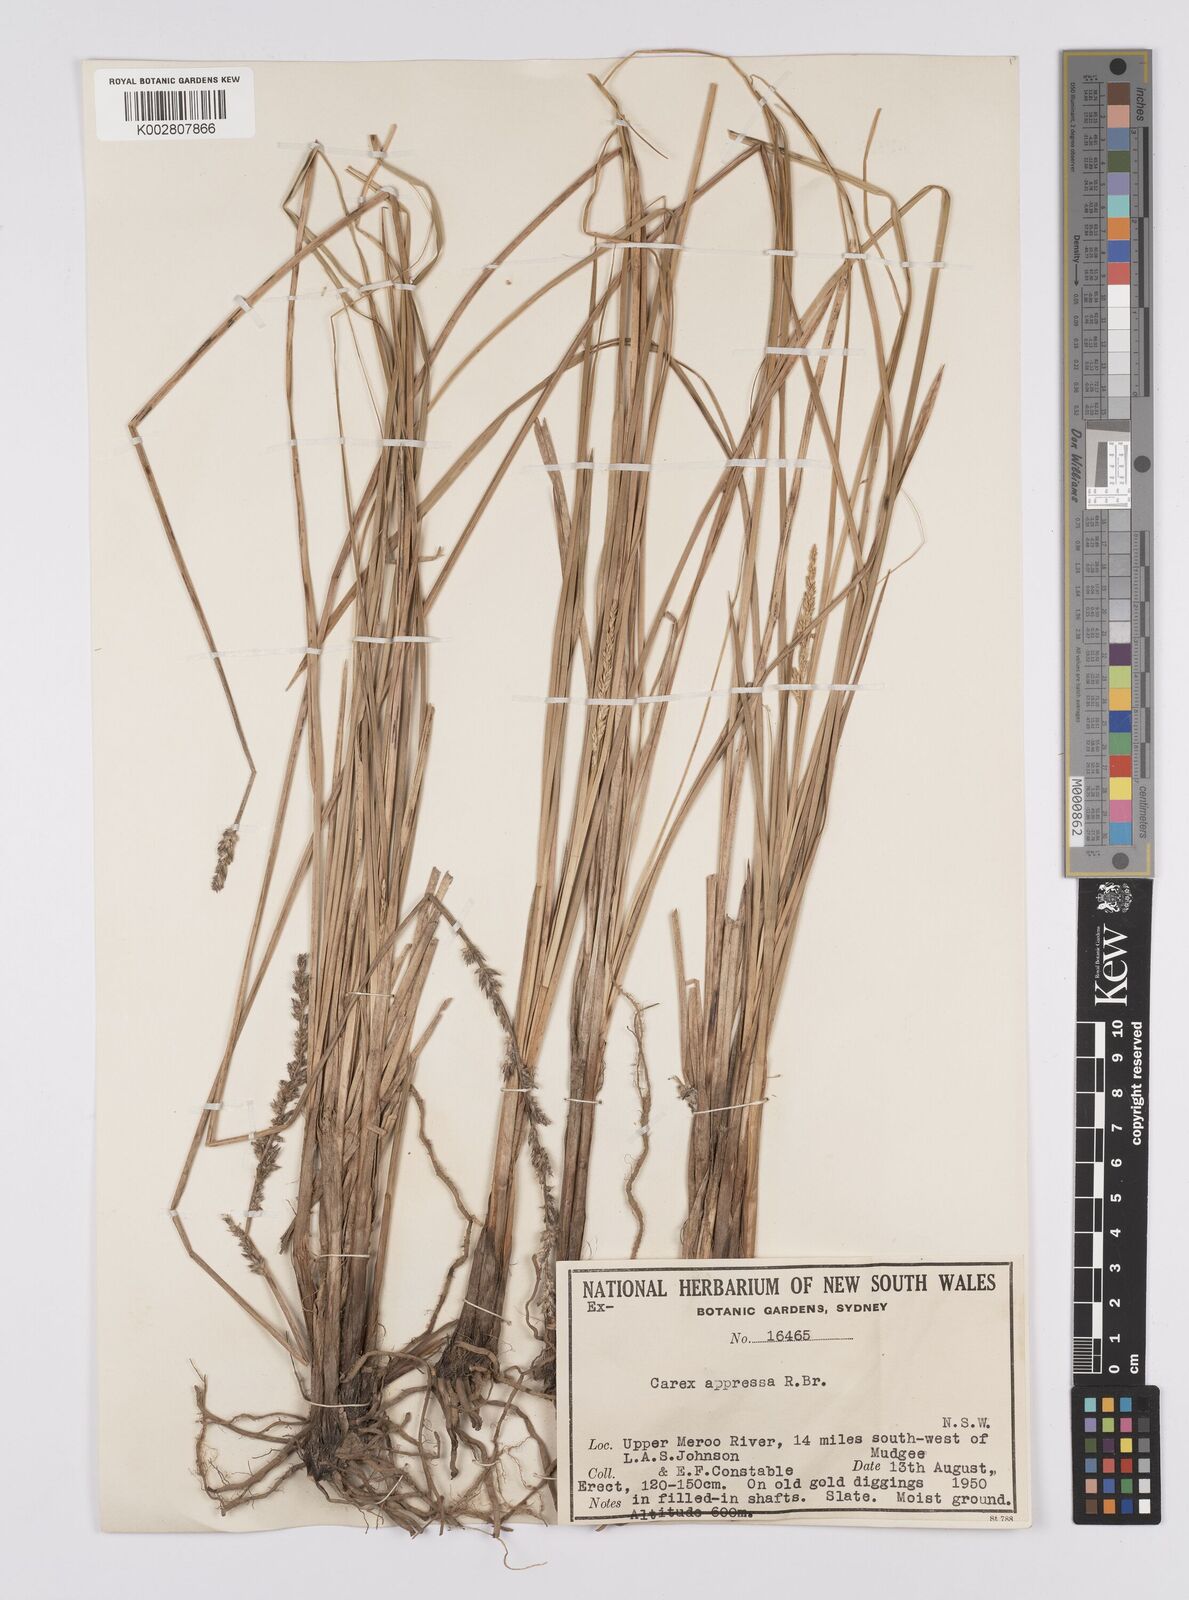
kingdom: Plantae
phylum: Tracheophyta
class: Liliopsida
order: Poales
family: Cyperaceae
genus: Carex
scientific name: Carex appressa
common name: Tussock sedge
